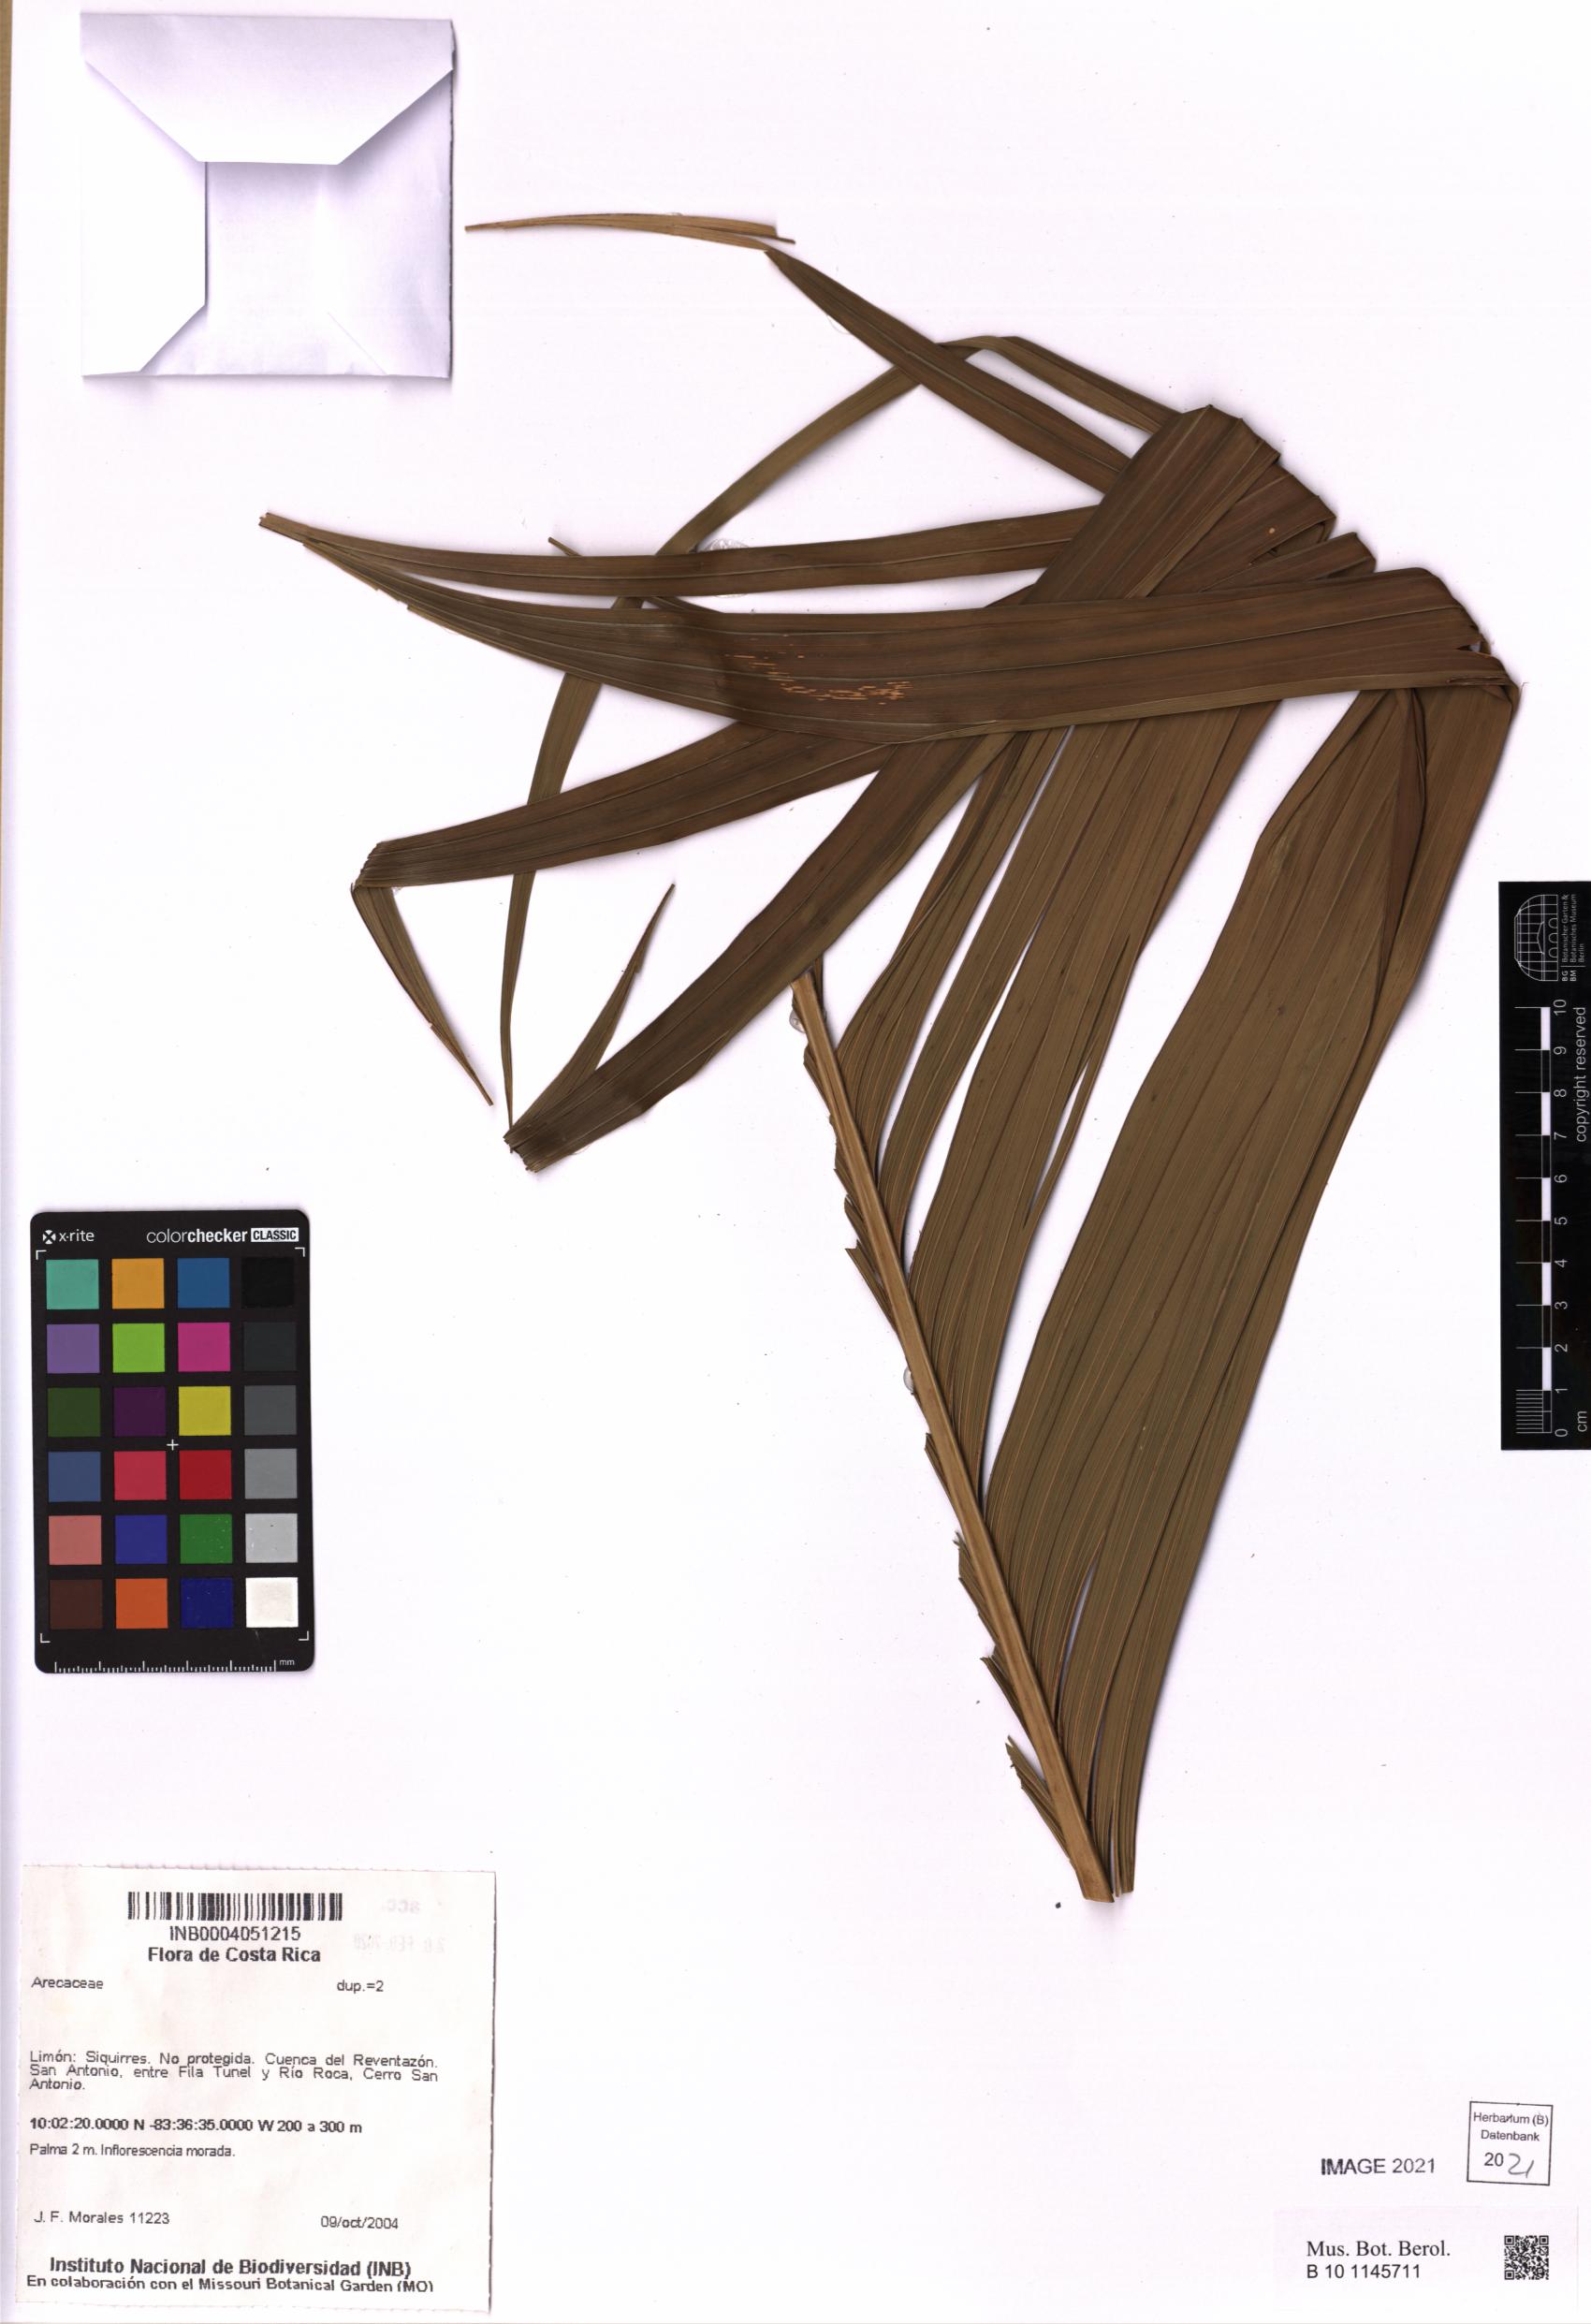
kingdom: Plantae
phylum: Tracheophyta
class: Liliopsida
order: Arecales
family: Arecaceae
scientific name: Arecaceae
